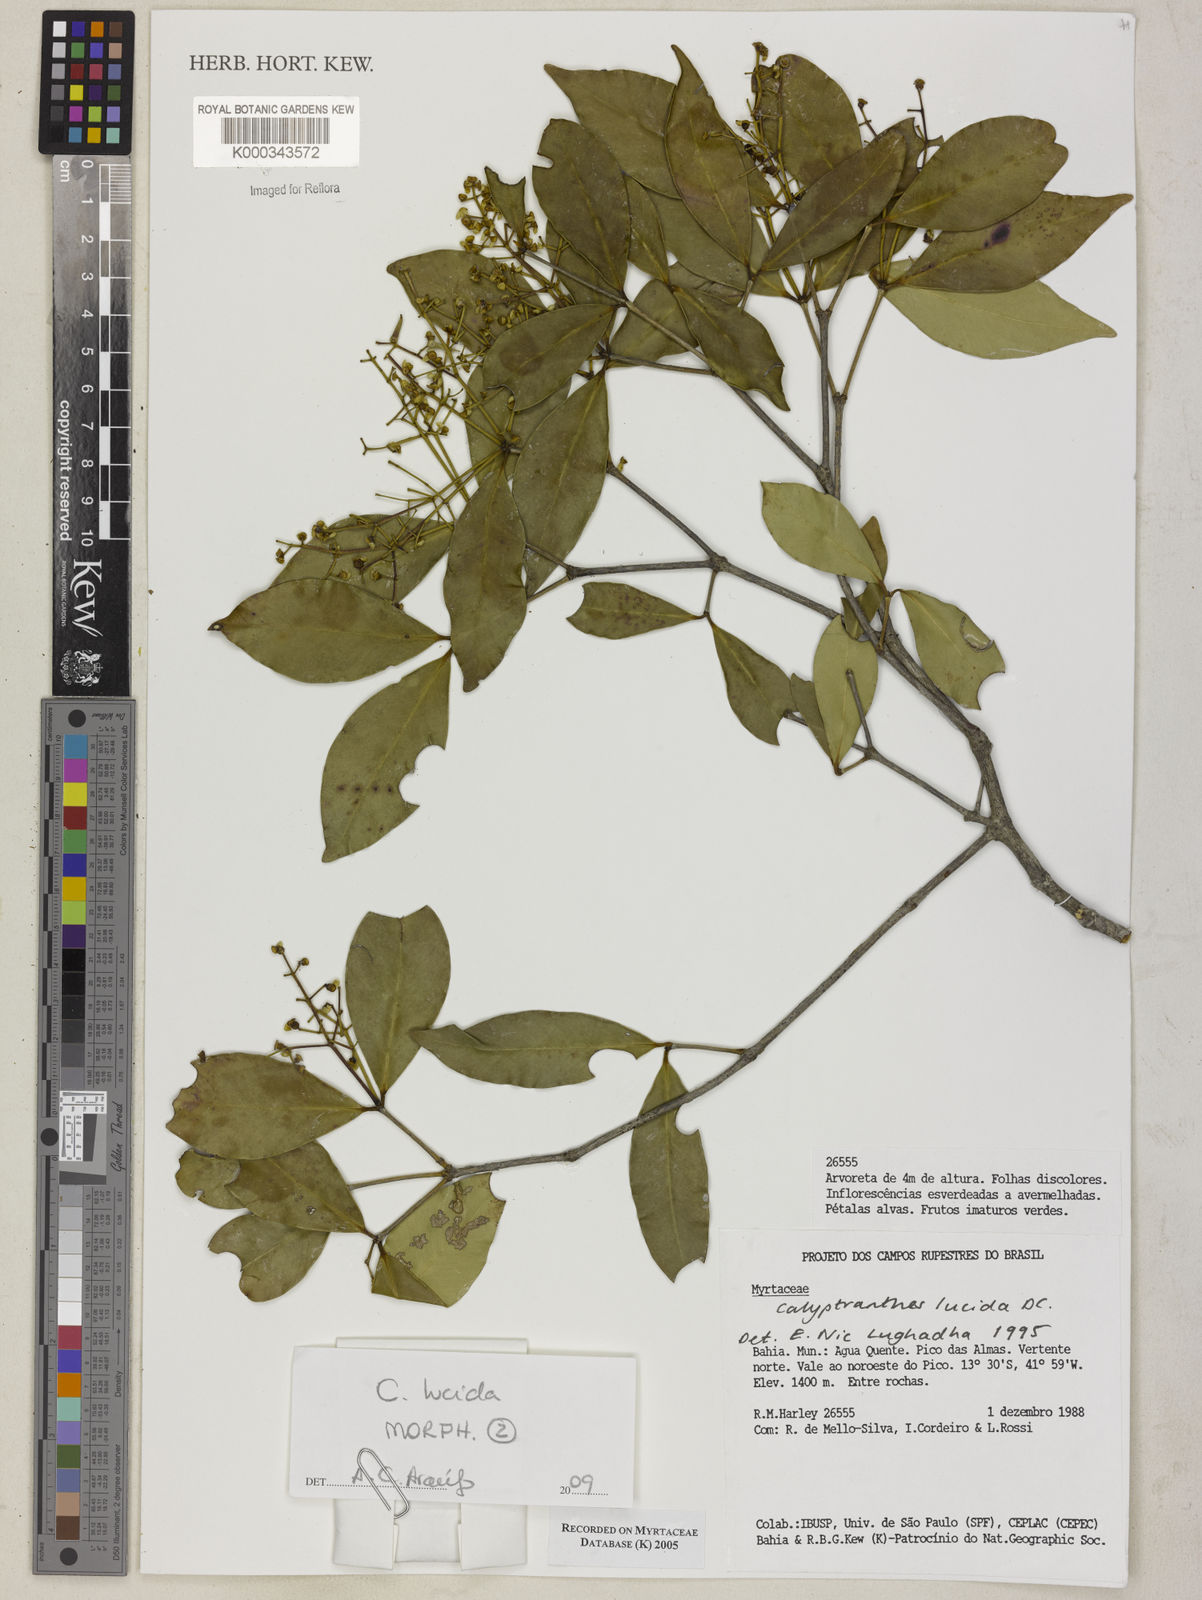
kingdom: Plantae
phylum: Tracheophyta
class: Magnoliopsida
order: Myrtales
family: Myrtaceae
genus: Myrcia
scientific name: Myrcia neolucida
